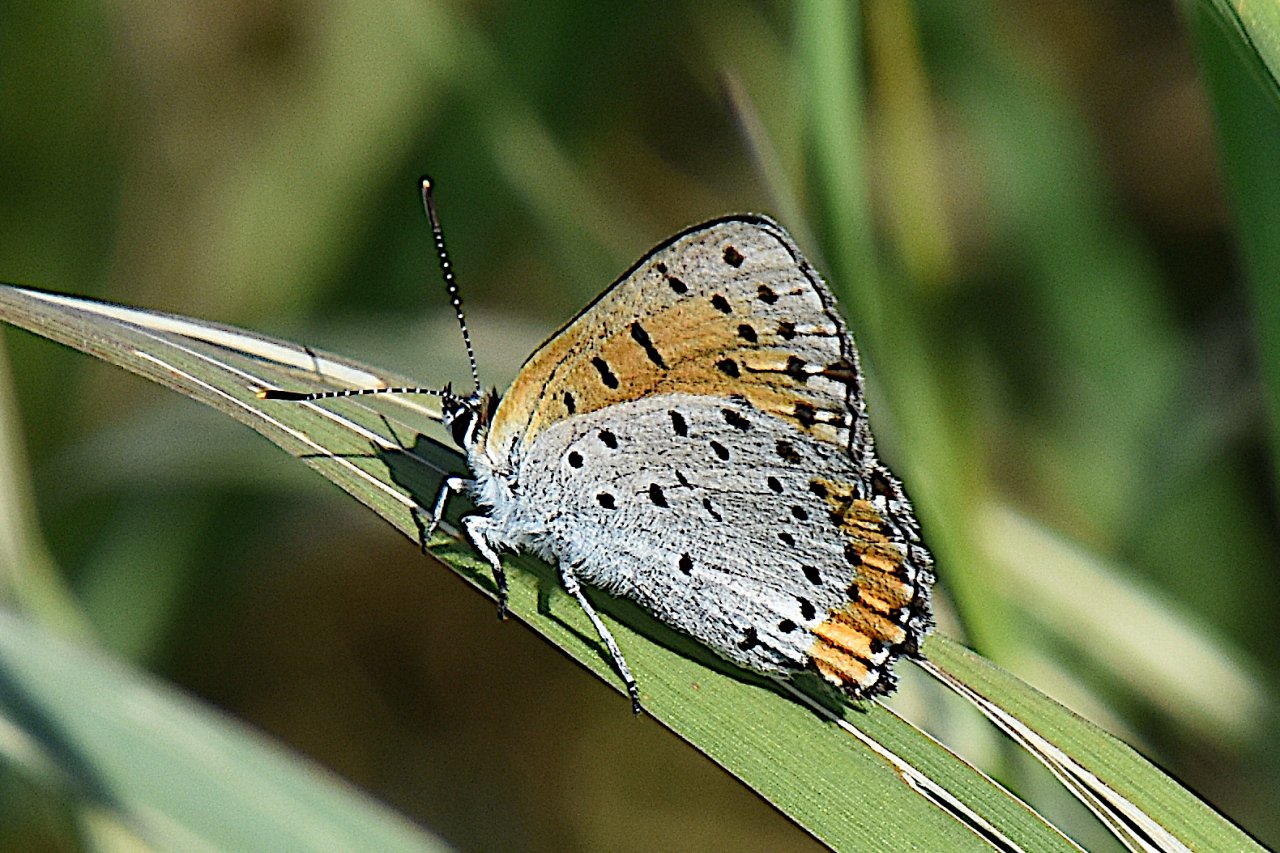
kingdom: Animalia
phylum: Arthropoda
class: Insecta
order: Lepidoptera
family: Sesiidae
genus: Sesia
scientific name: Sesia Lycaena hyllus
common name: Bronze Copper
